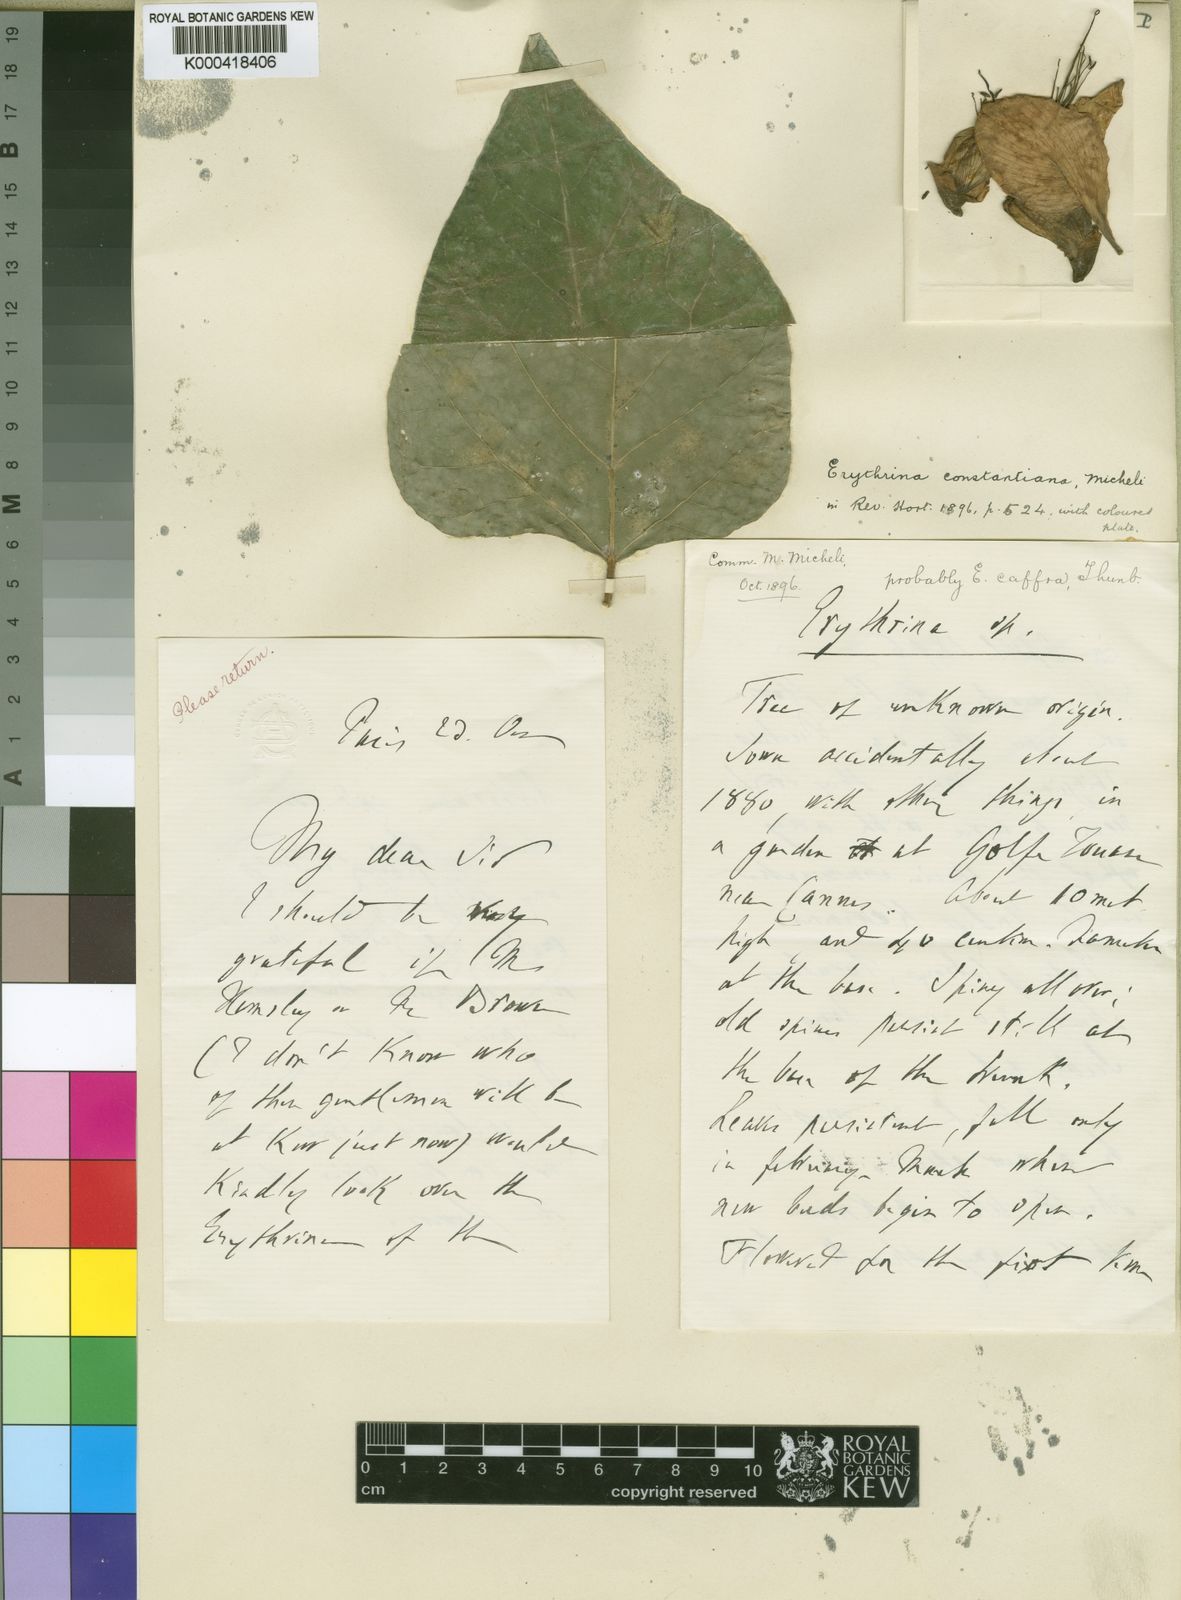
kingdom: Plantae
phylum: Tracheophyta
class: Magnoliopsida
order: Fabales
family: Fabaceae
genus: Erythrina
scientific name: Erythrina caffra
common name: Coast coral tree
